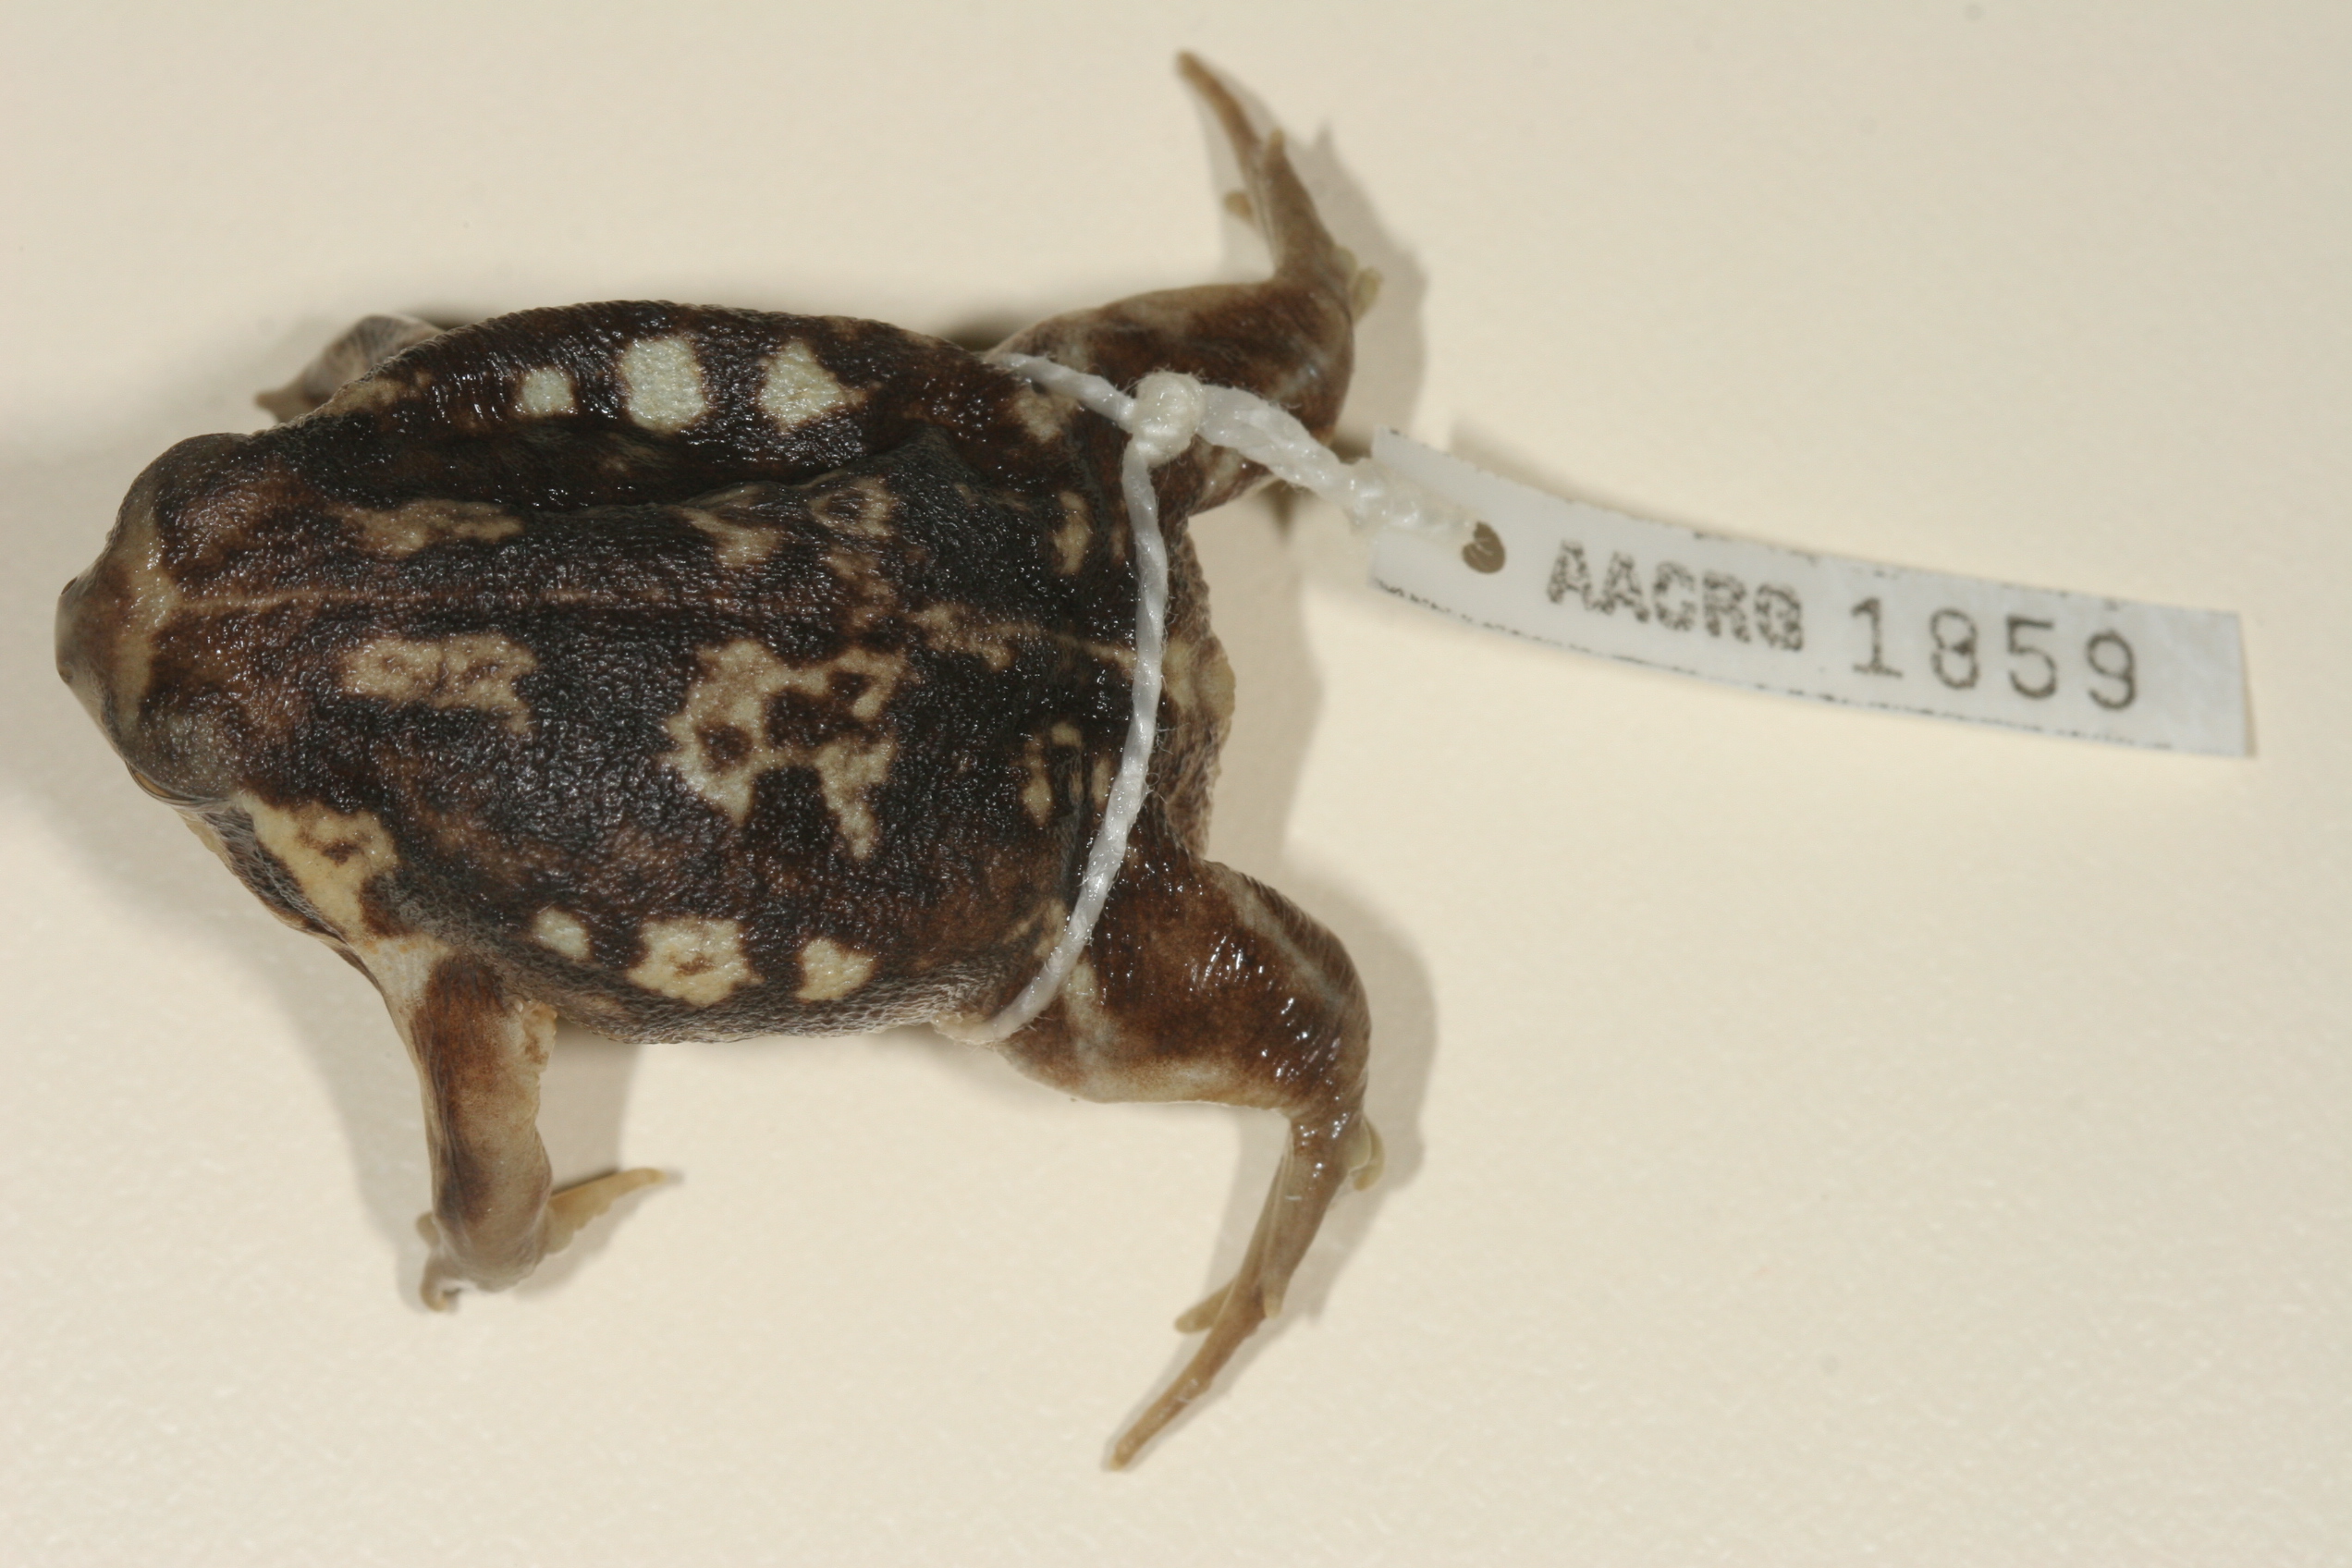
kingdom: Animalia
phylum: Chordata
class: Amphibia
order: Anura
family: Brevicipitidae
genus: Breviceps
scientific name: Breviceps adspersus
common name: Common rain frog
